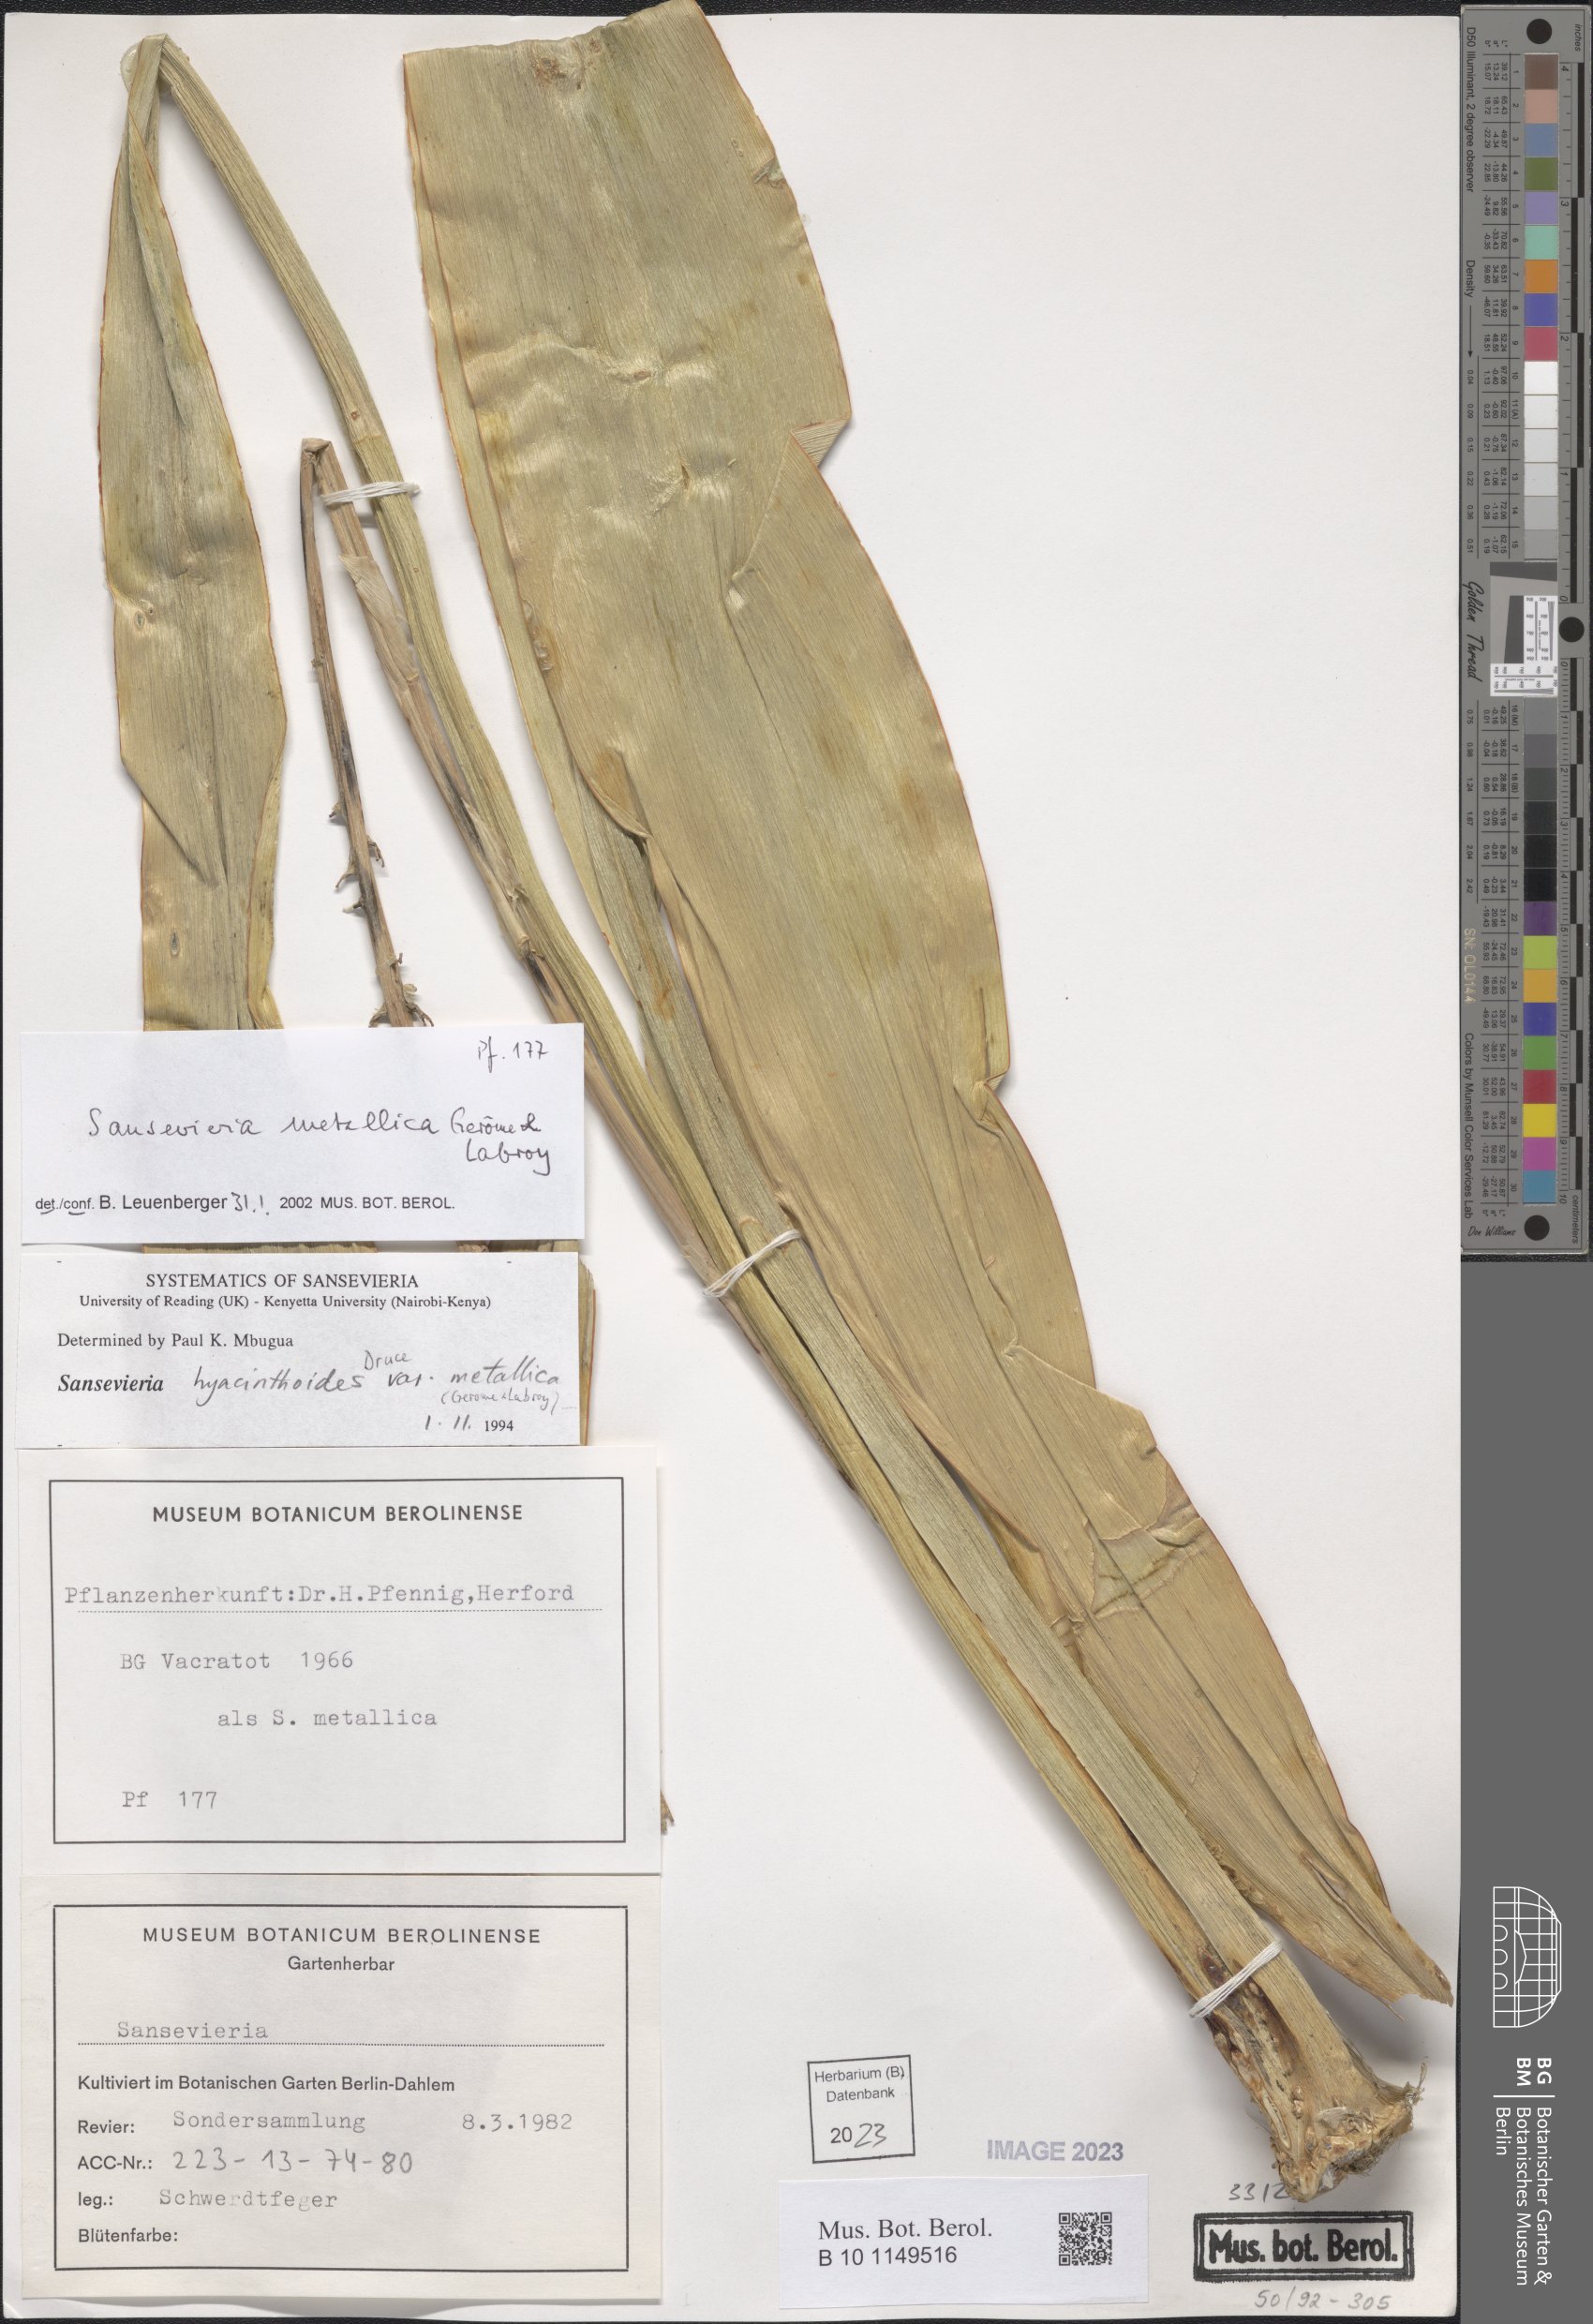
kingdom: Plantae
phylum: Tracheophyta
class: Liliopsida
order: Asparagales
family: Asparagaceae
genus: Dracaena
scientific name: Dracaena zebra
